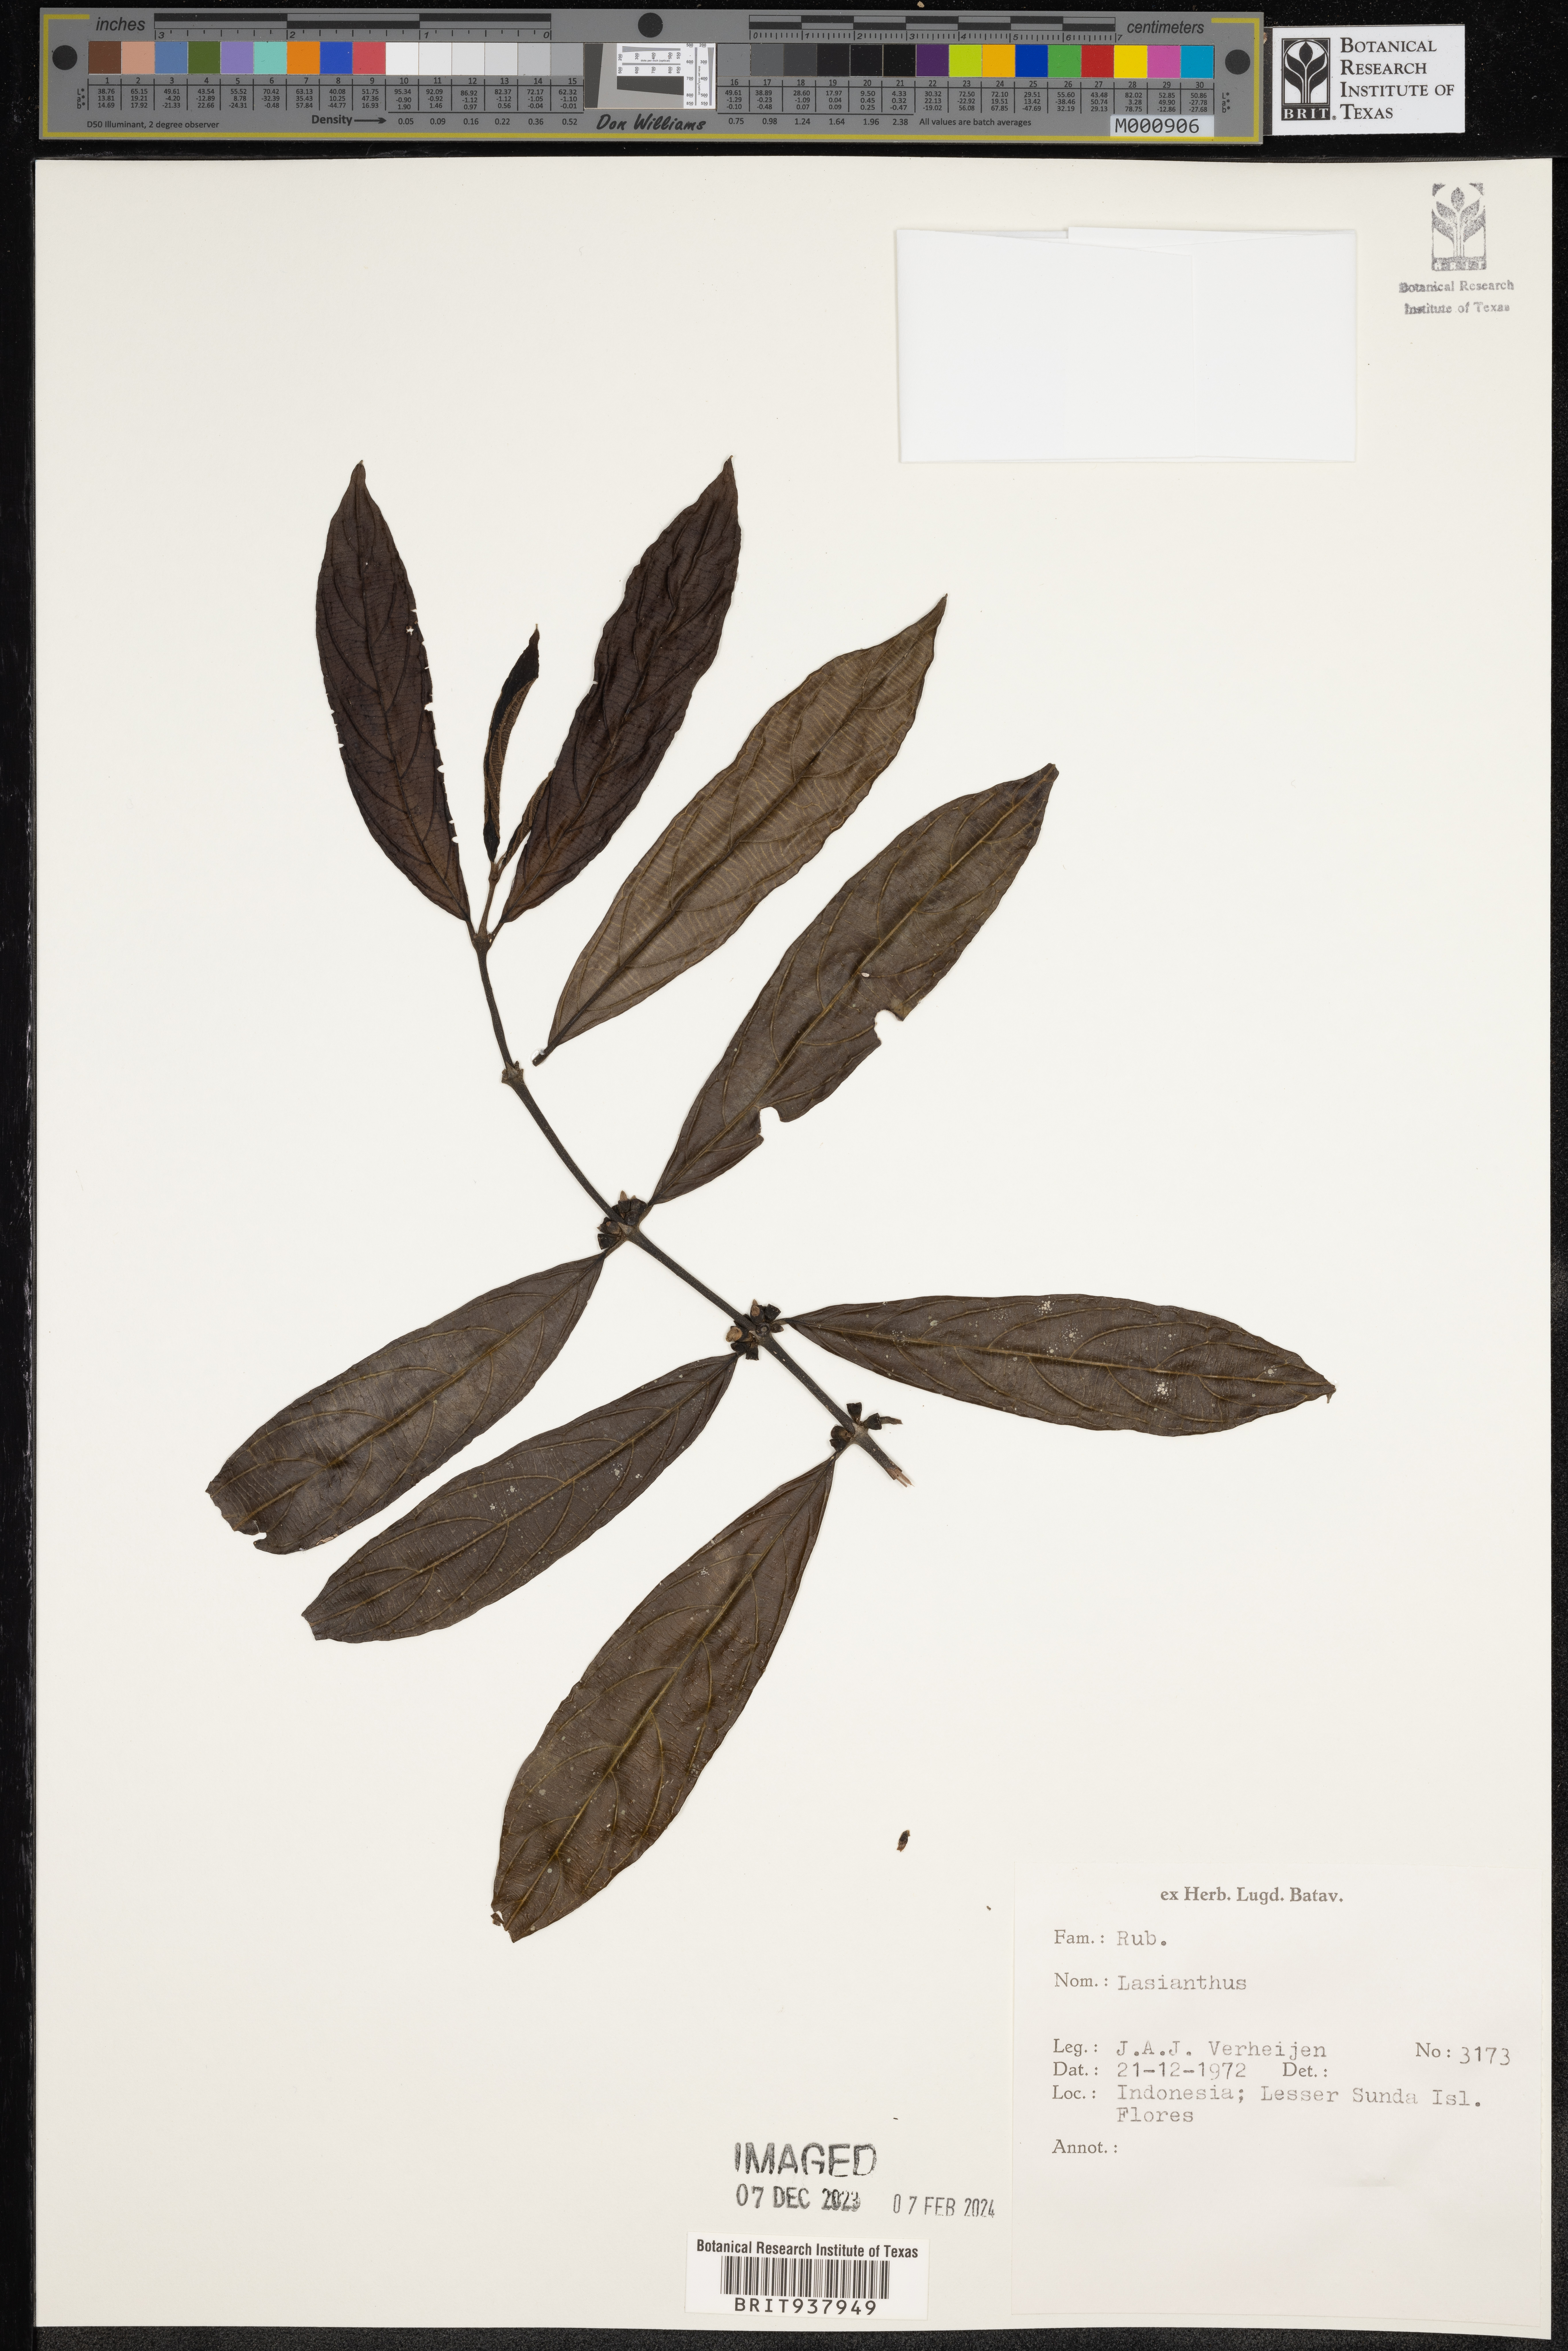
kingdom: Plantae
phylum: Tracheophyta
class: Magnoliopsida
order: Gentianales
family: Rubiaceae
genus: Lasianthus
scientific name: Lasianthus
